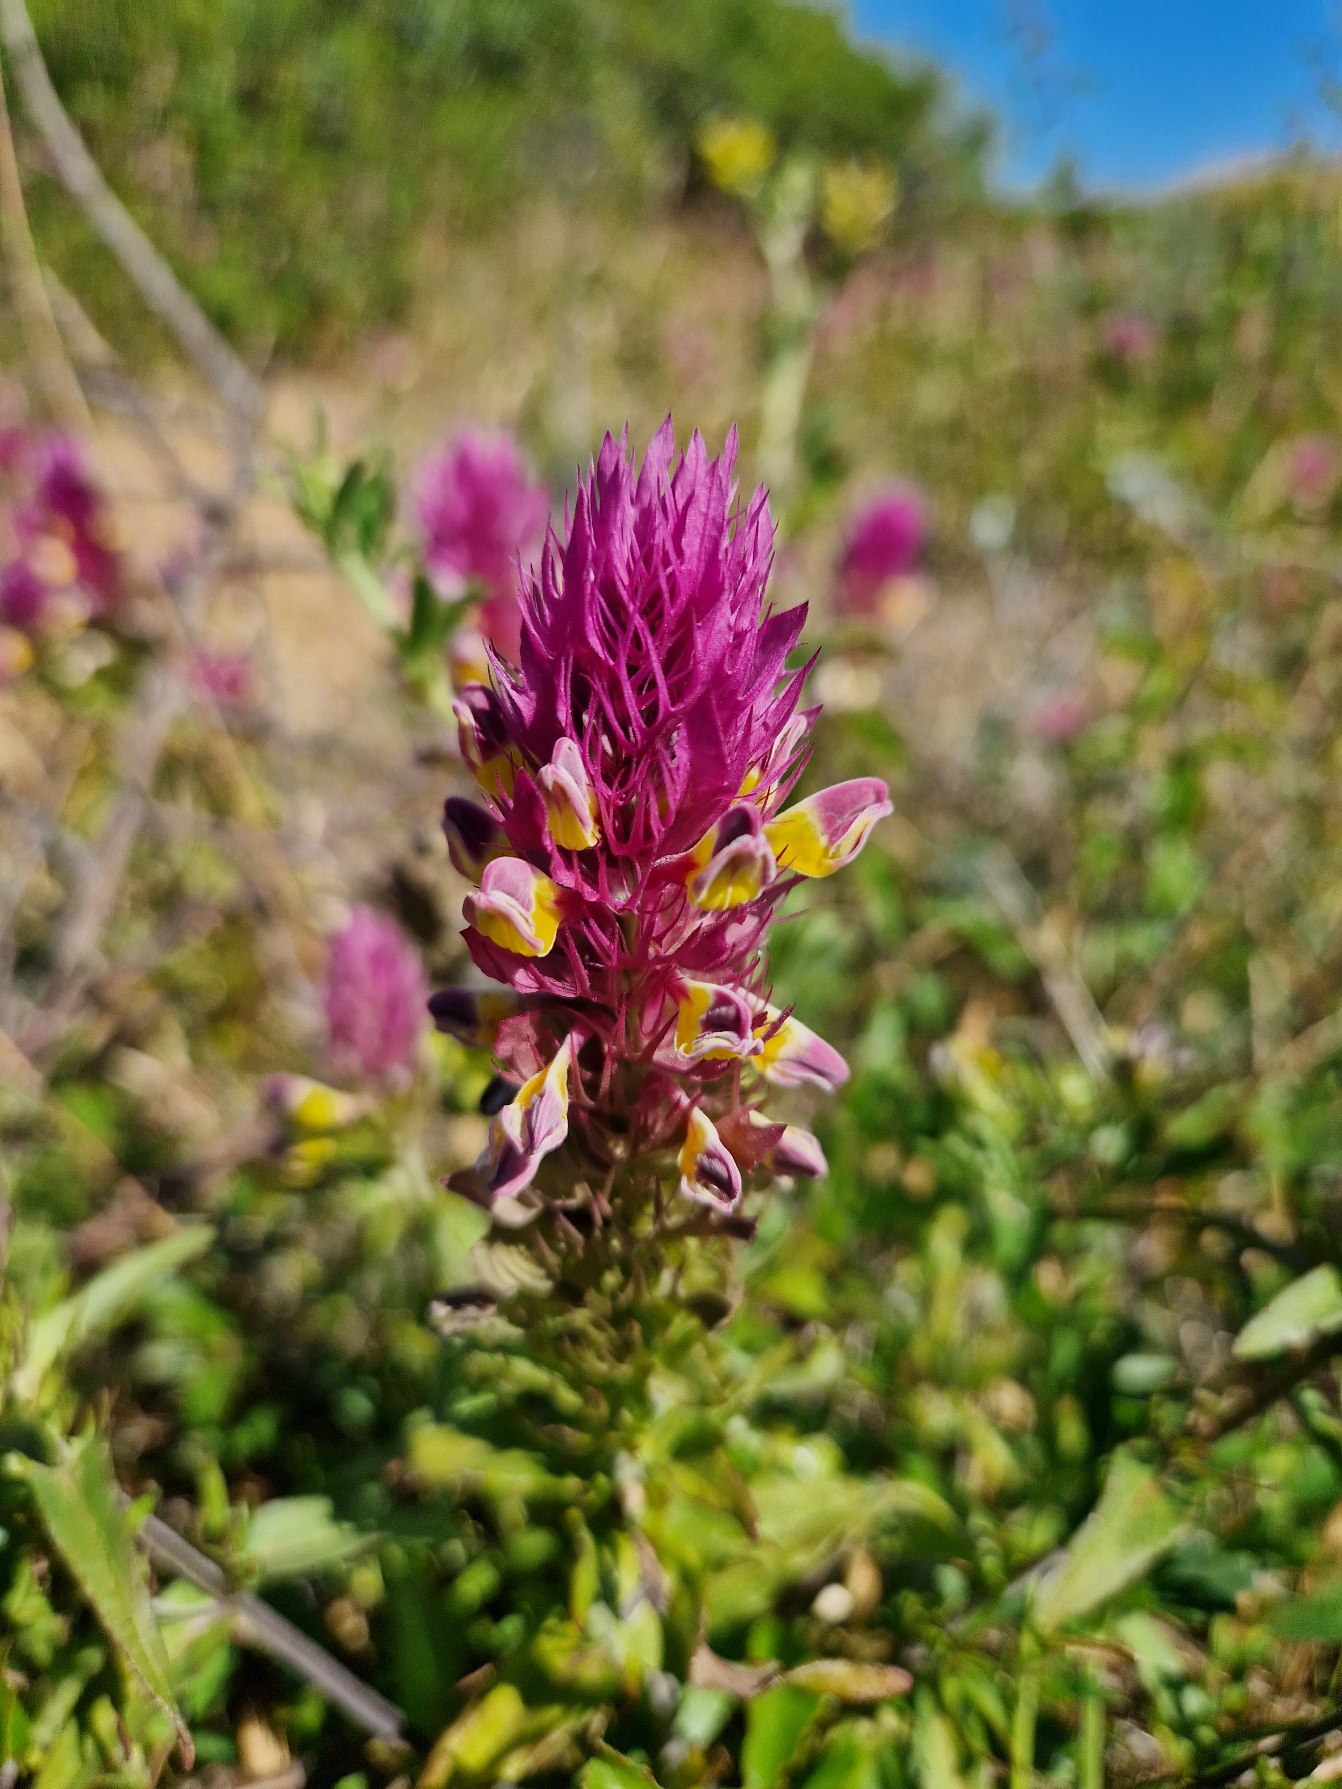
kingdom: Plantae
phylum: Tracheophyta
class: Magnoliopsida
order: Lamiales
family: Orobanchaceae
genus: Melampyrum
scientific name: Melampyrum arvense
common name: Ager-kohvede
